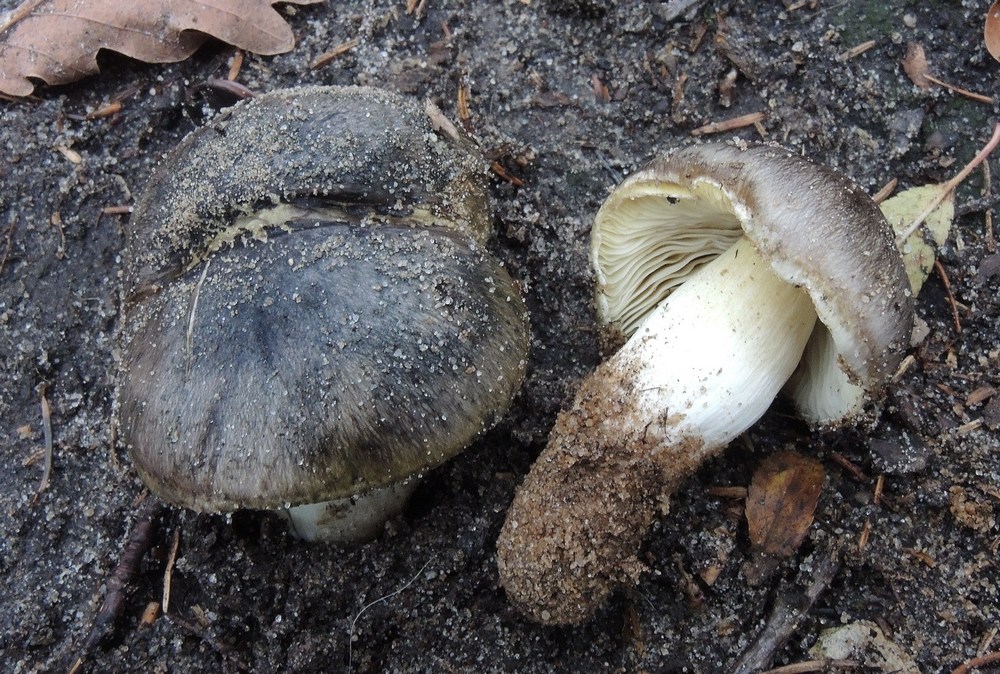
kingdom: Fungi
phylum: Basidiomycota
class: Agaricomycetes
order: Agaricales
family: Tricholomataceae
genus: Tricholoma
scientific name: Tricholoma portentosum
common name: grå ridderhat
